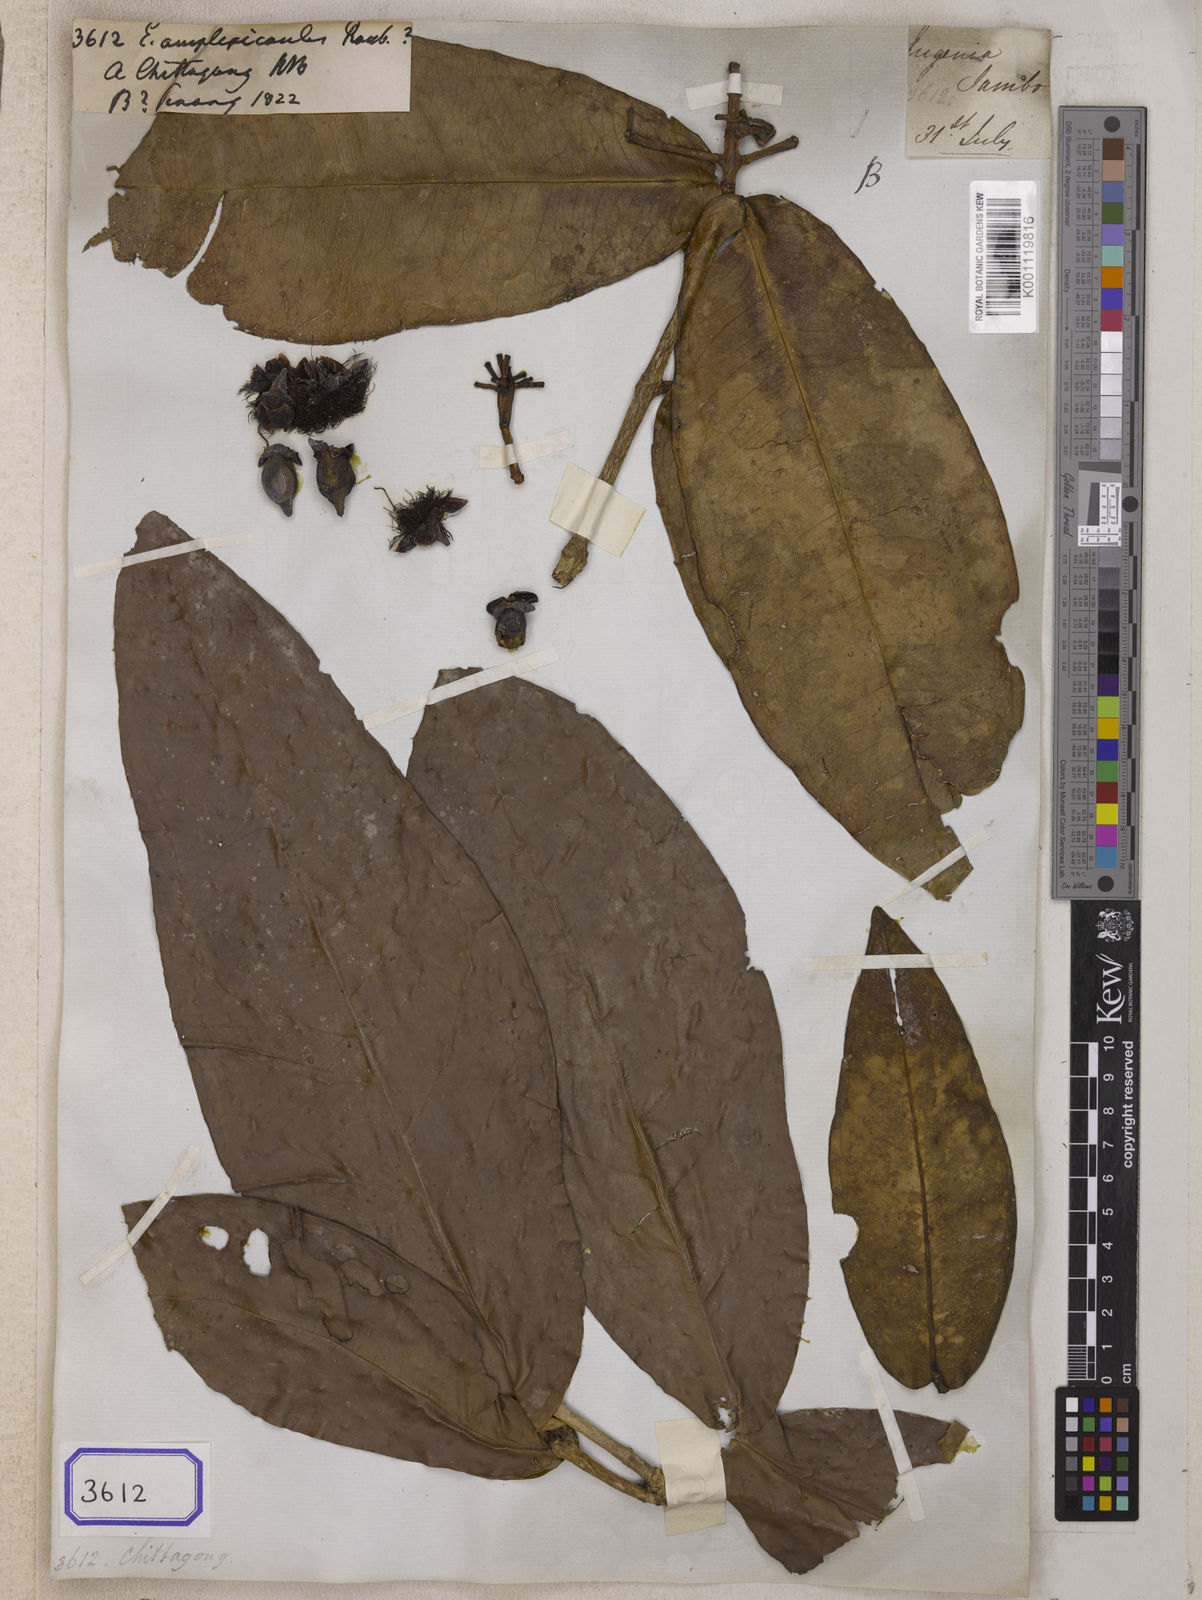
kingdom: Plantae
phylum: Tracheophyta
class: Magnoliopsida
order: Myrtales
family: Myrtaceae
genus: Eugenia
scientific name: Eugenia
